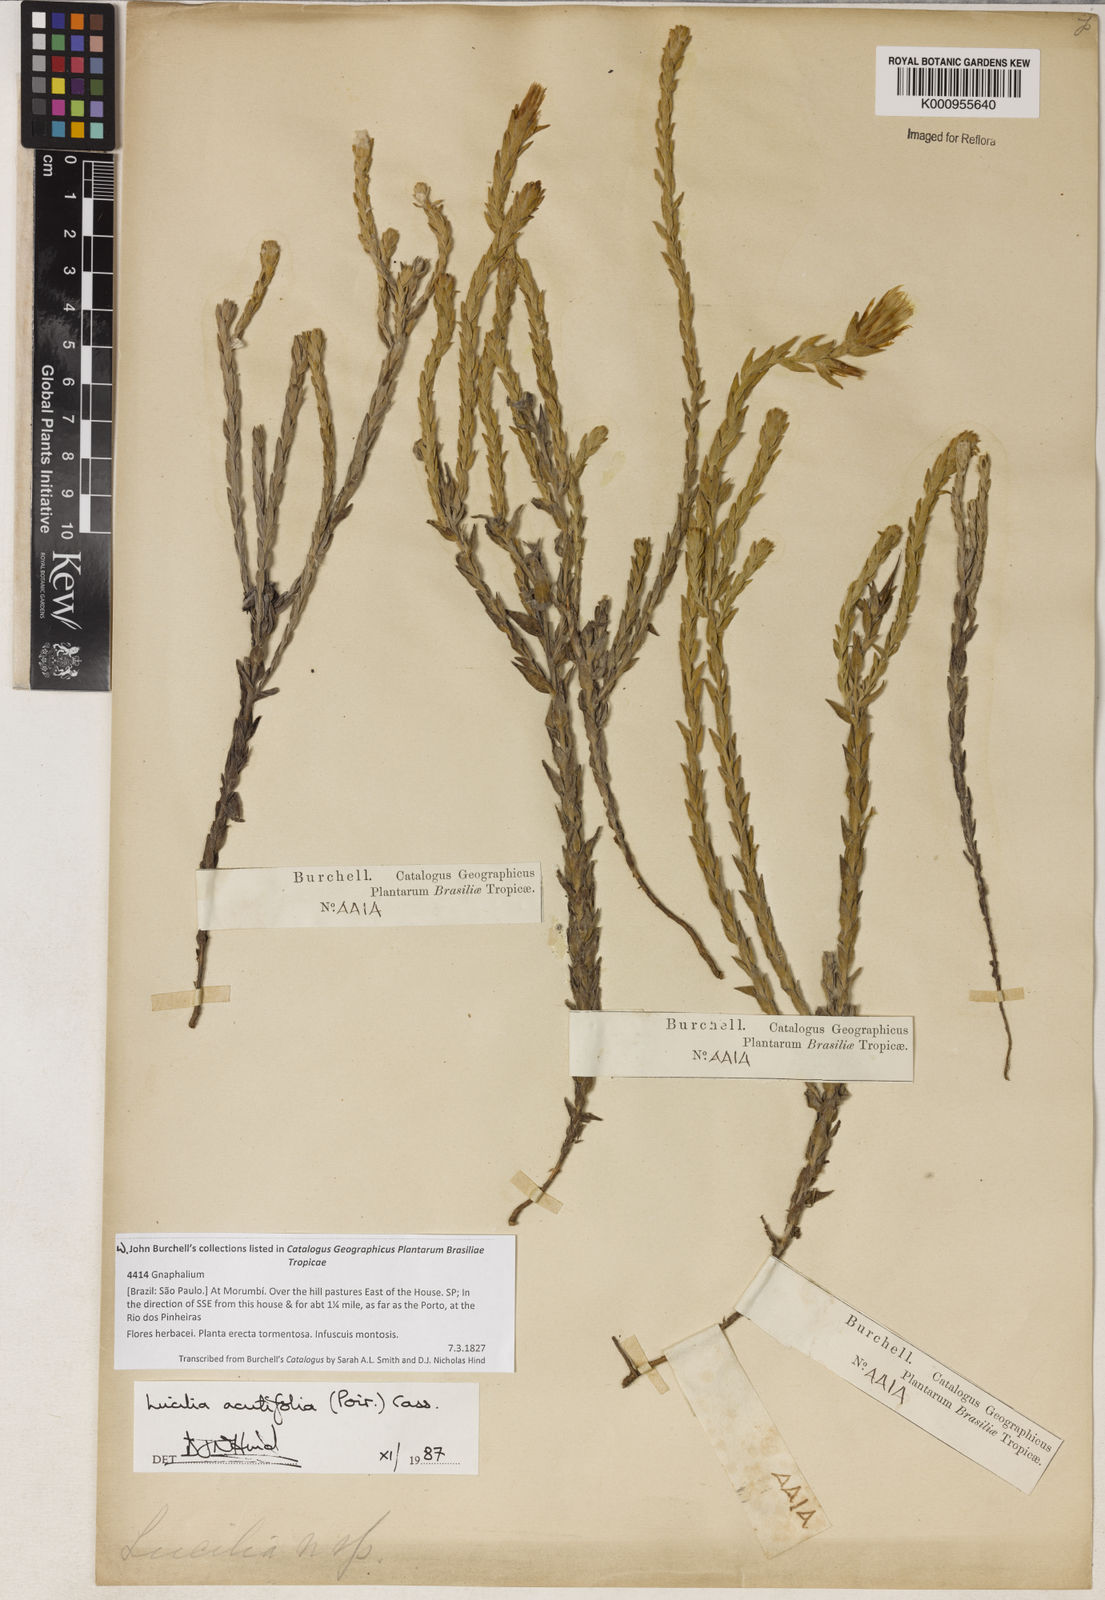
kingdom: Plantae
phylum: Tracheophyta
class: Magnoliopsida
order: Asterales
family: Asteraceae
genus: Lucilia
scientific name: Lucilia acutifolia
